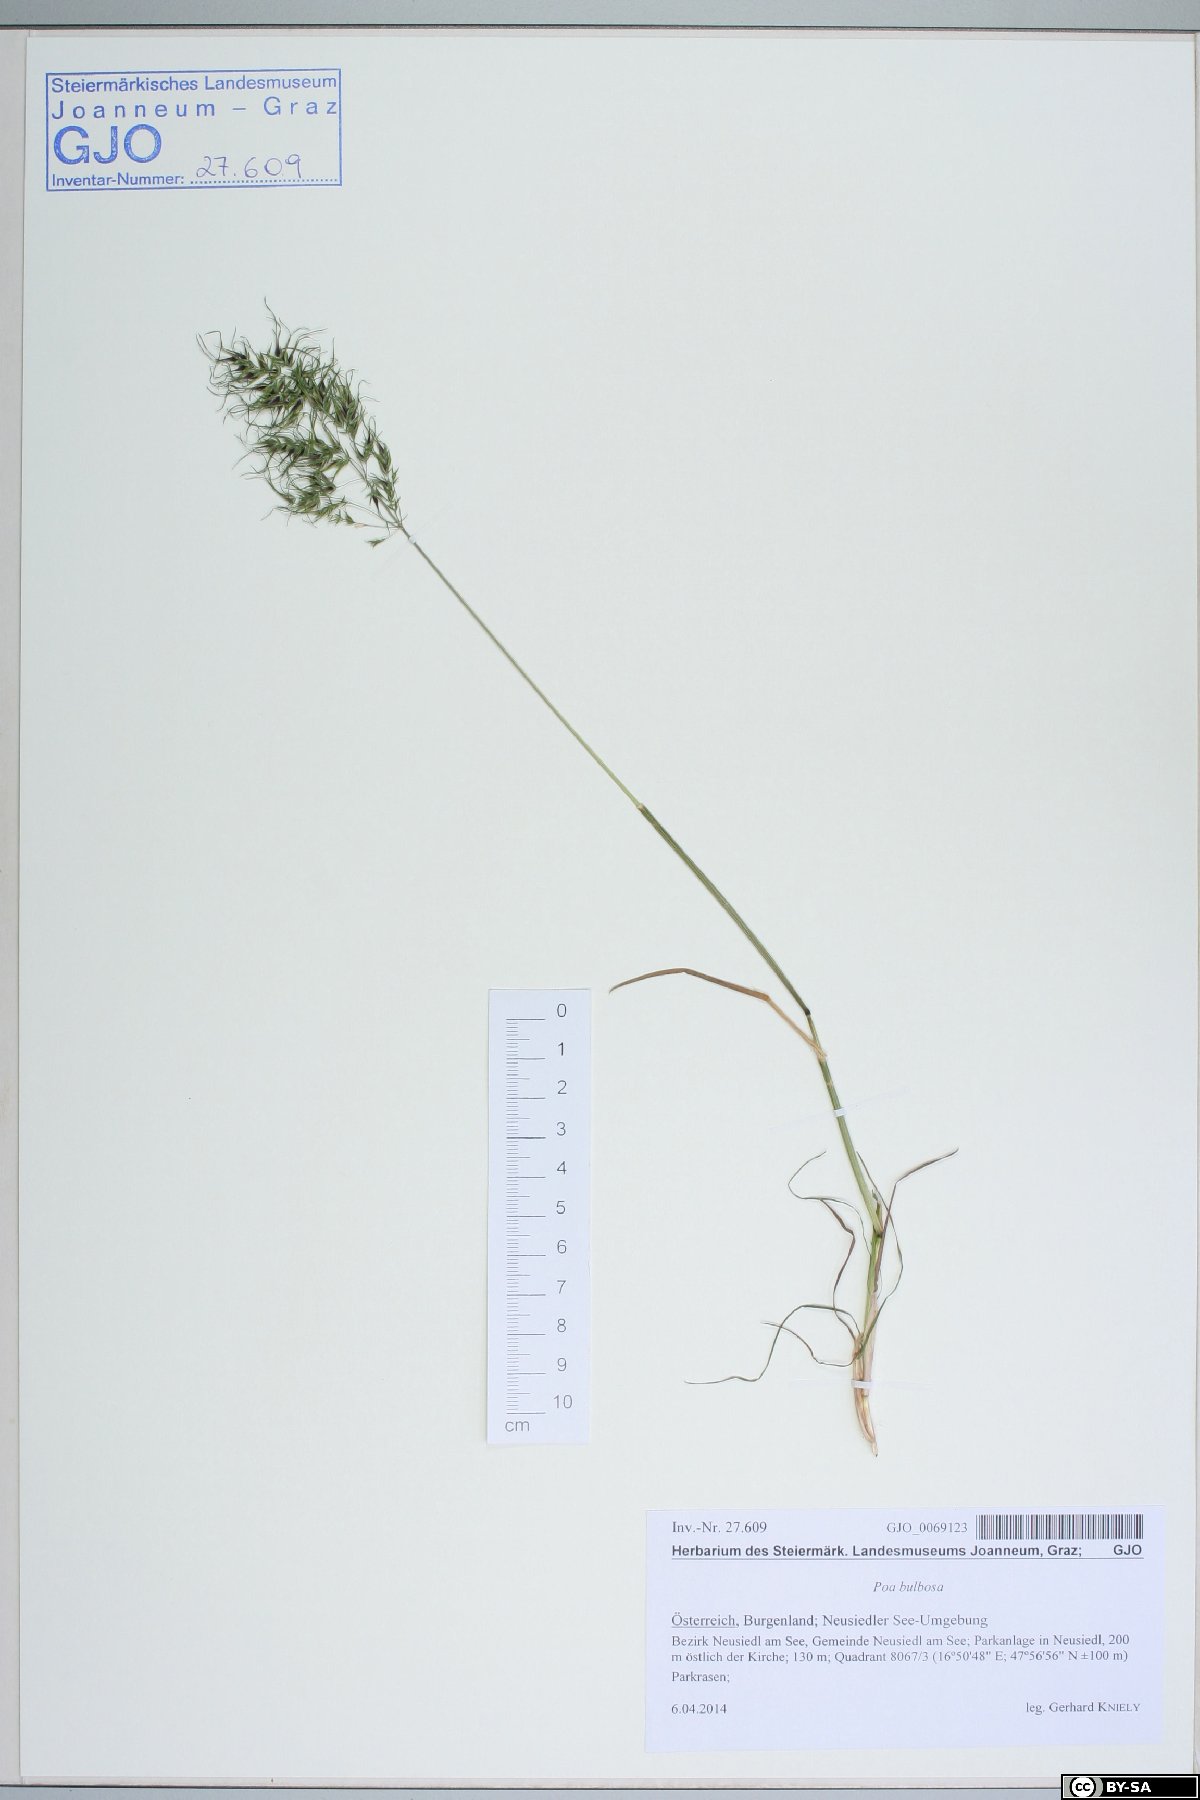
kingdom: Plantae
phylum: Tracheophyta
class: Liliopsida
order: Poales
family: Poaceae
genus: Poa
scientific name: Poa bulbosa
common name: Bulbous bluegrass
